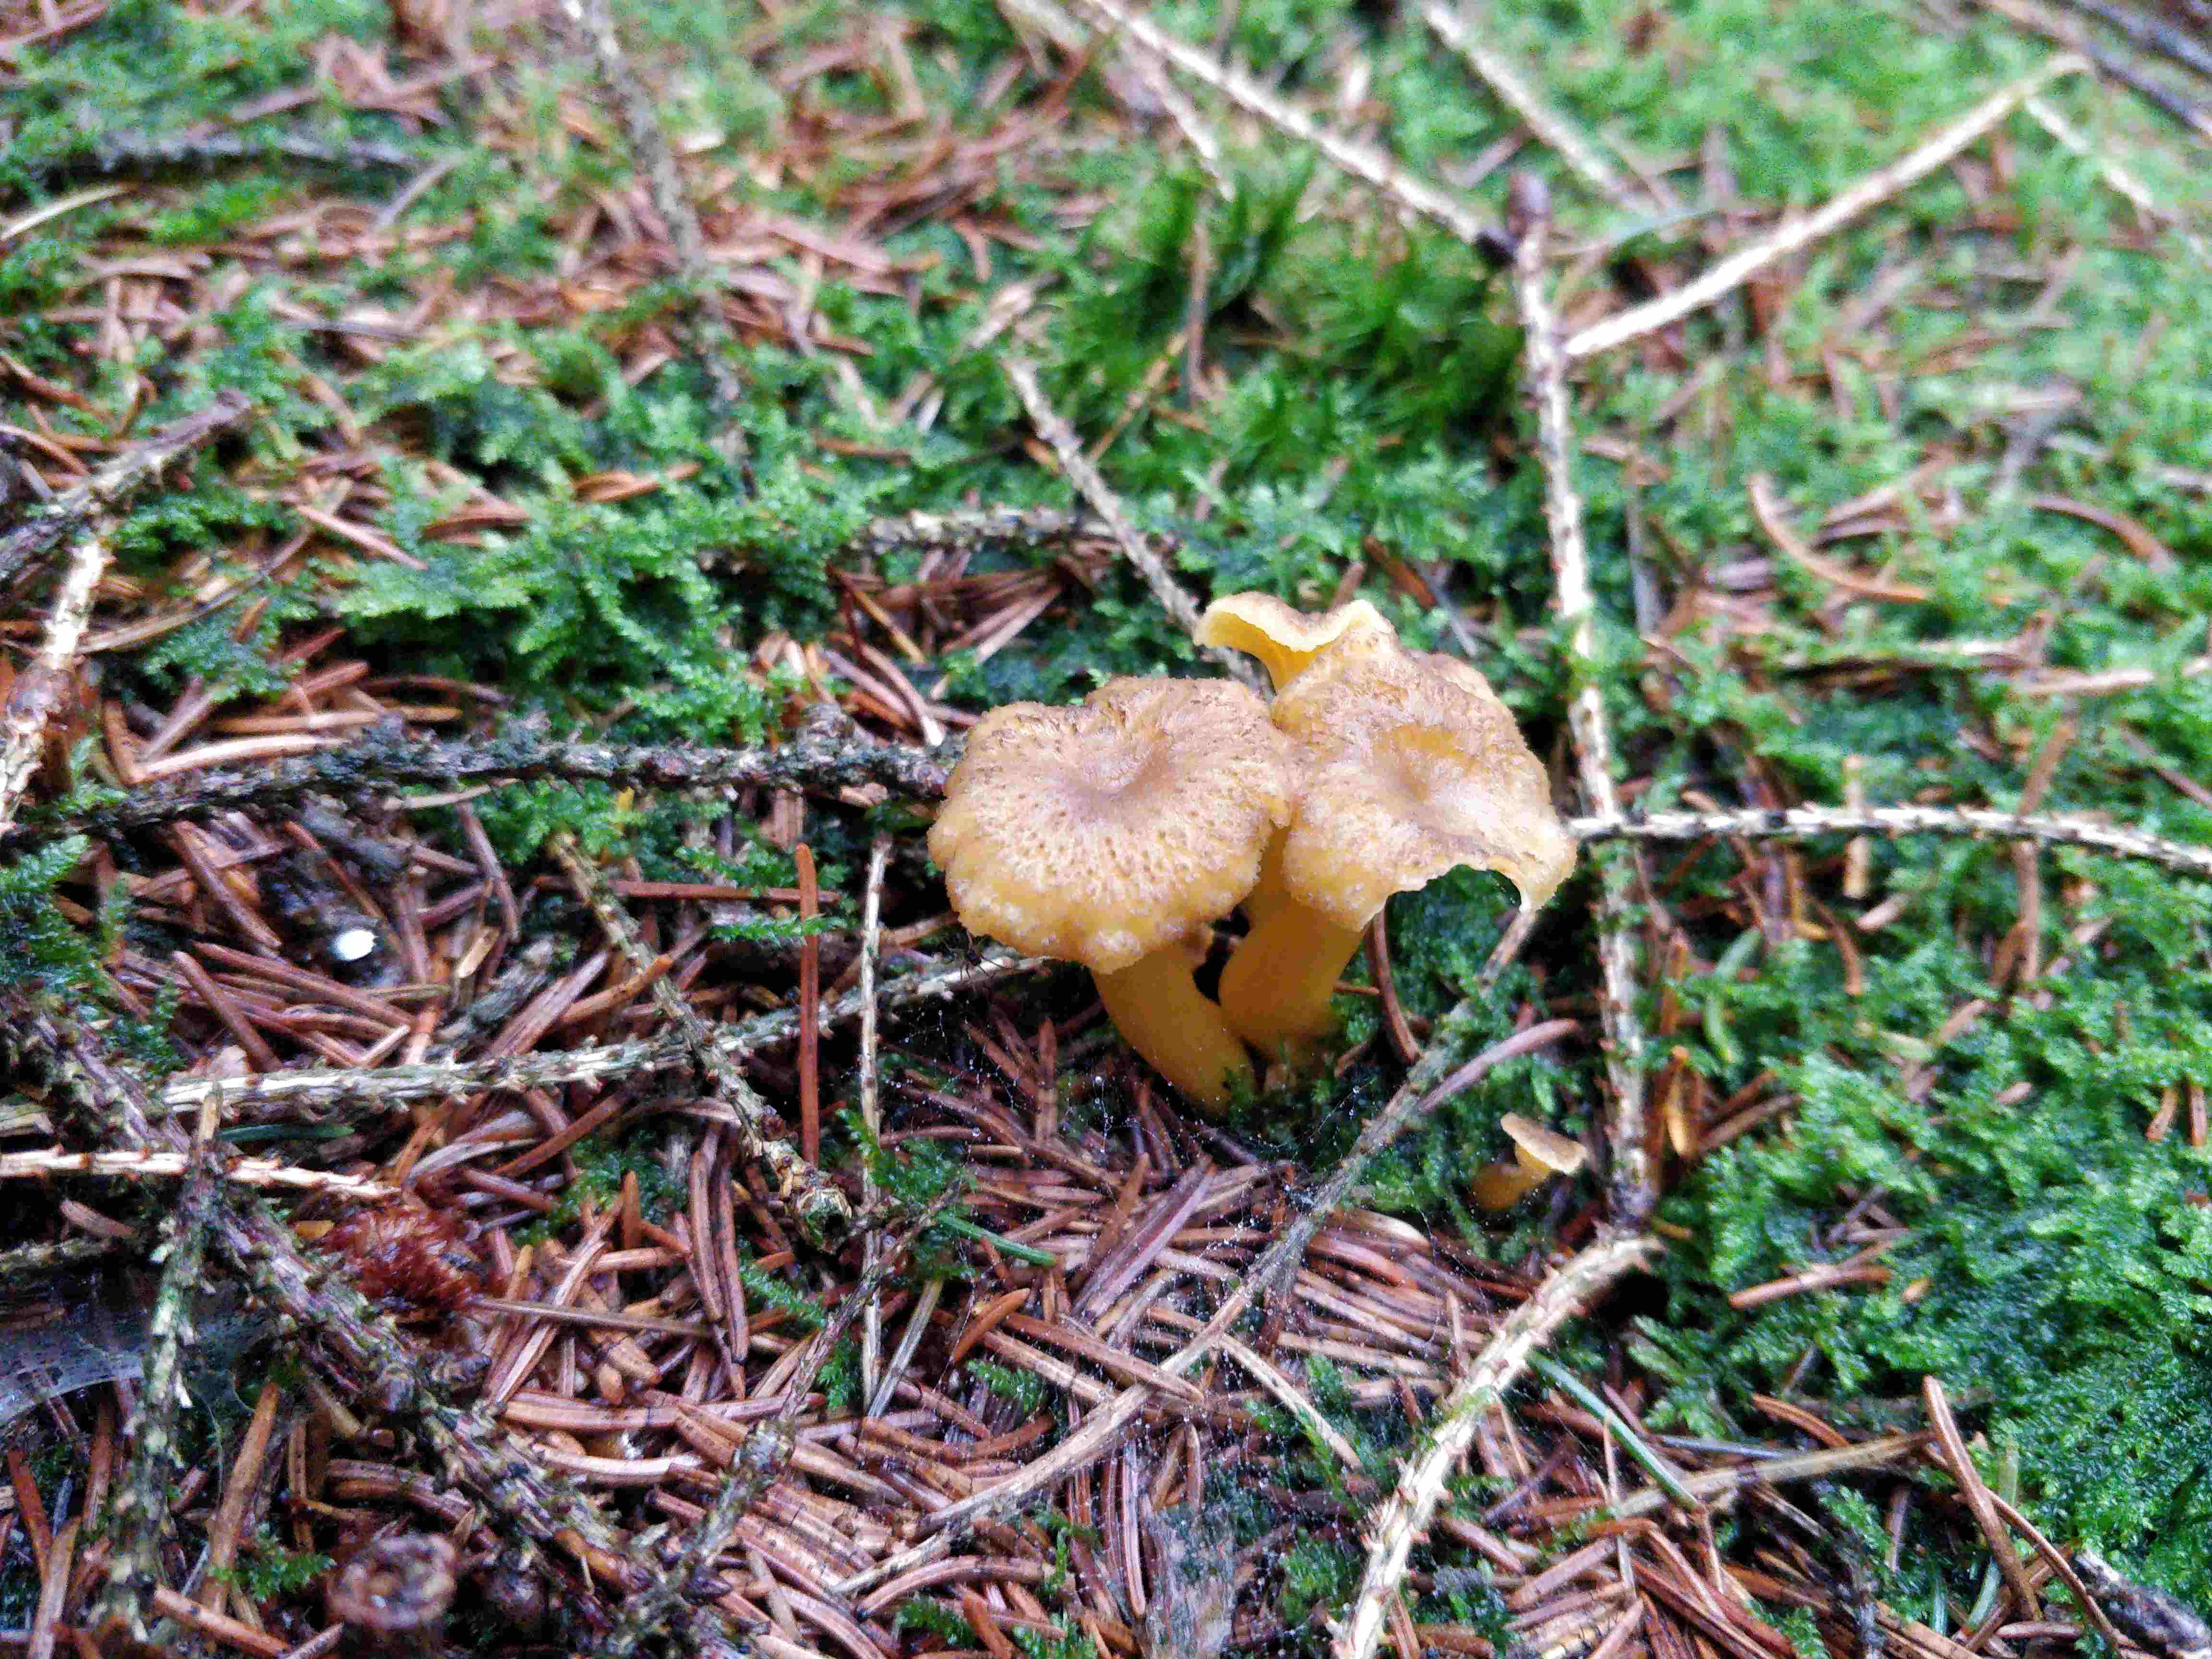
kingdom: Fungi
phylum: Basidiomycota
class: Agaricomycetes
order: Cantharellales
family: Hydnaceae
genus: Craterellus
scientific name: Craterellus tubaeformis
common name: tragt-kantarel
